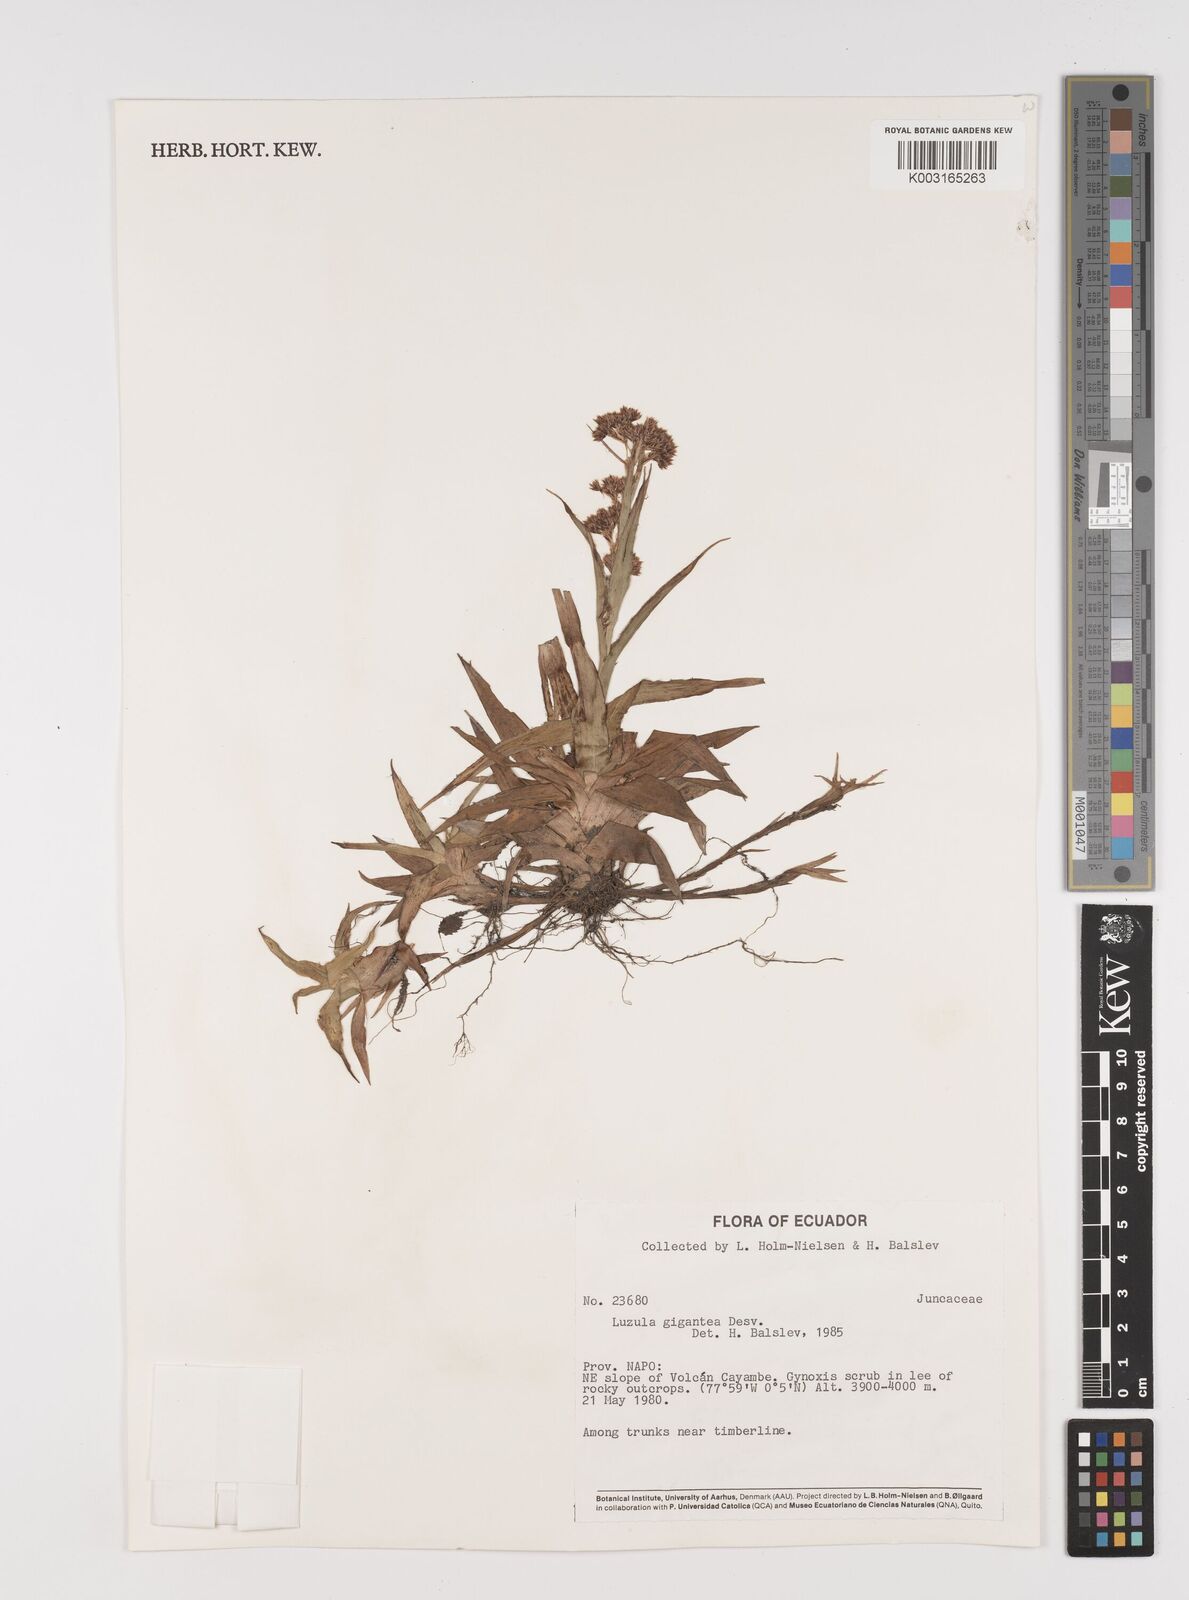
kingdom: Plantae
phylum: Tracheophyta
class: Liliopsida
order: Poales
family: Juncaceae
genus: Luzula
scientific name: Luzula gigantea
